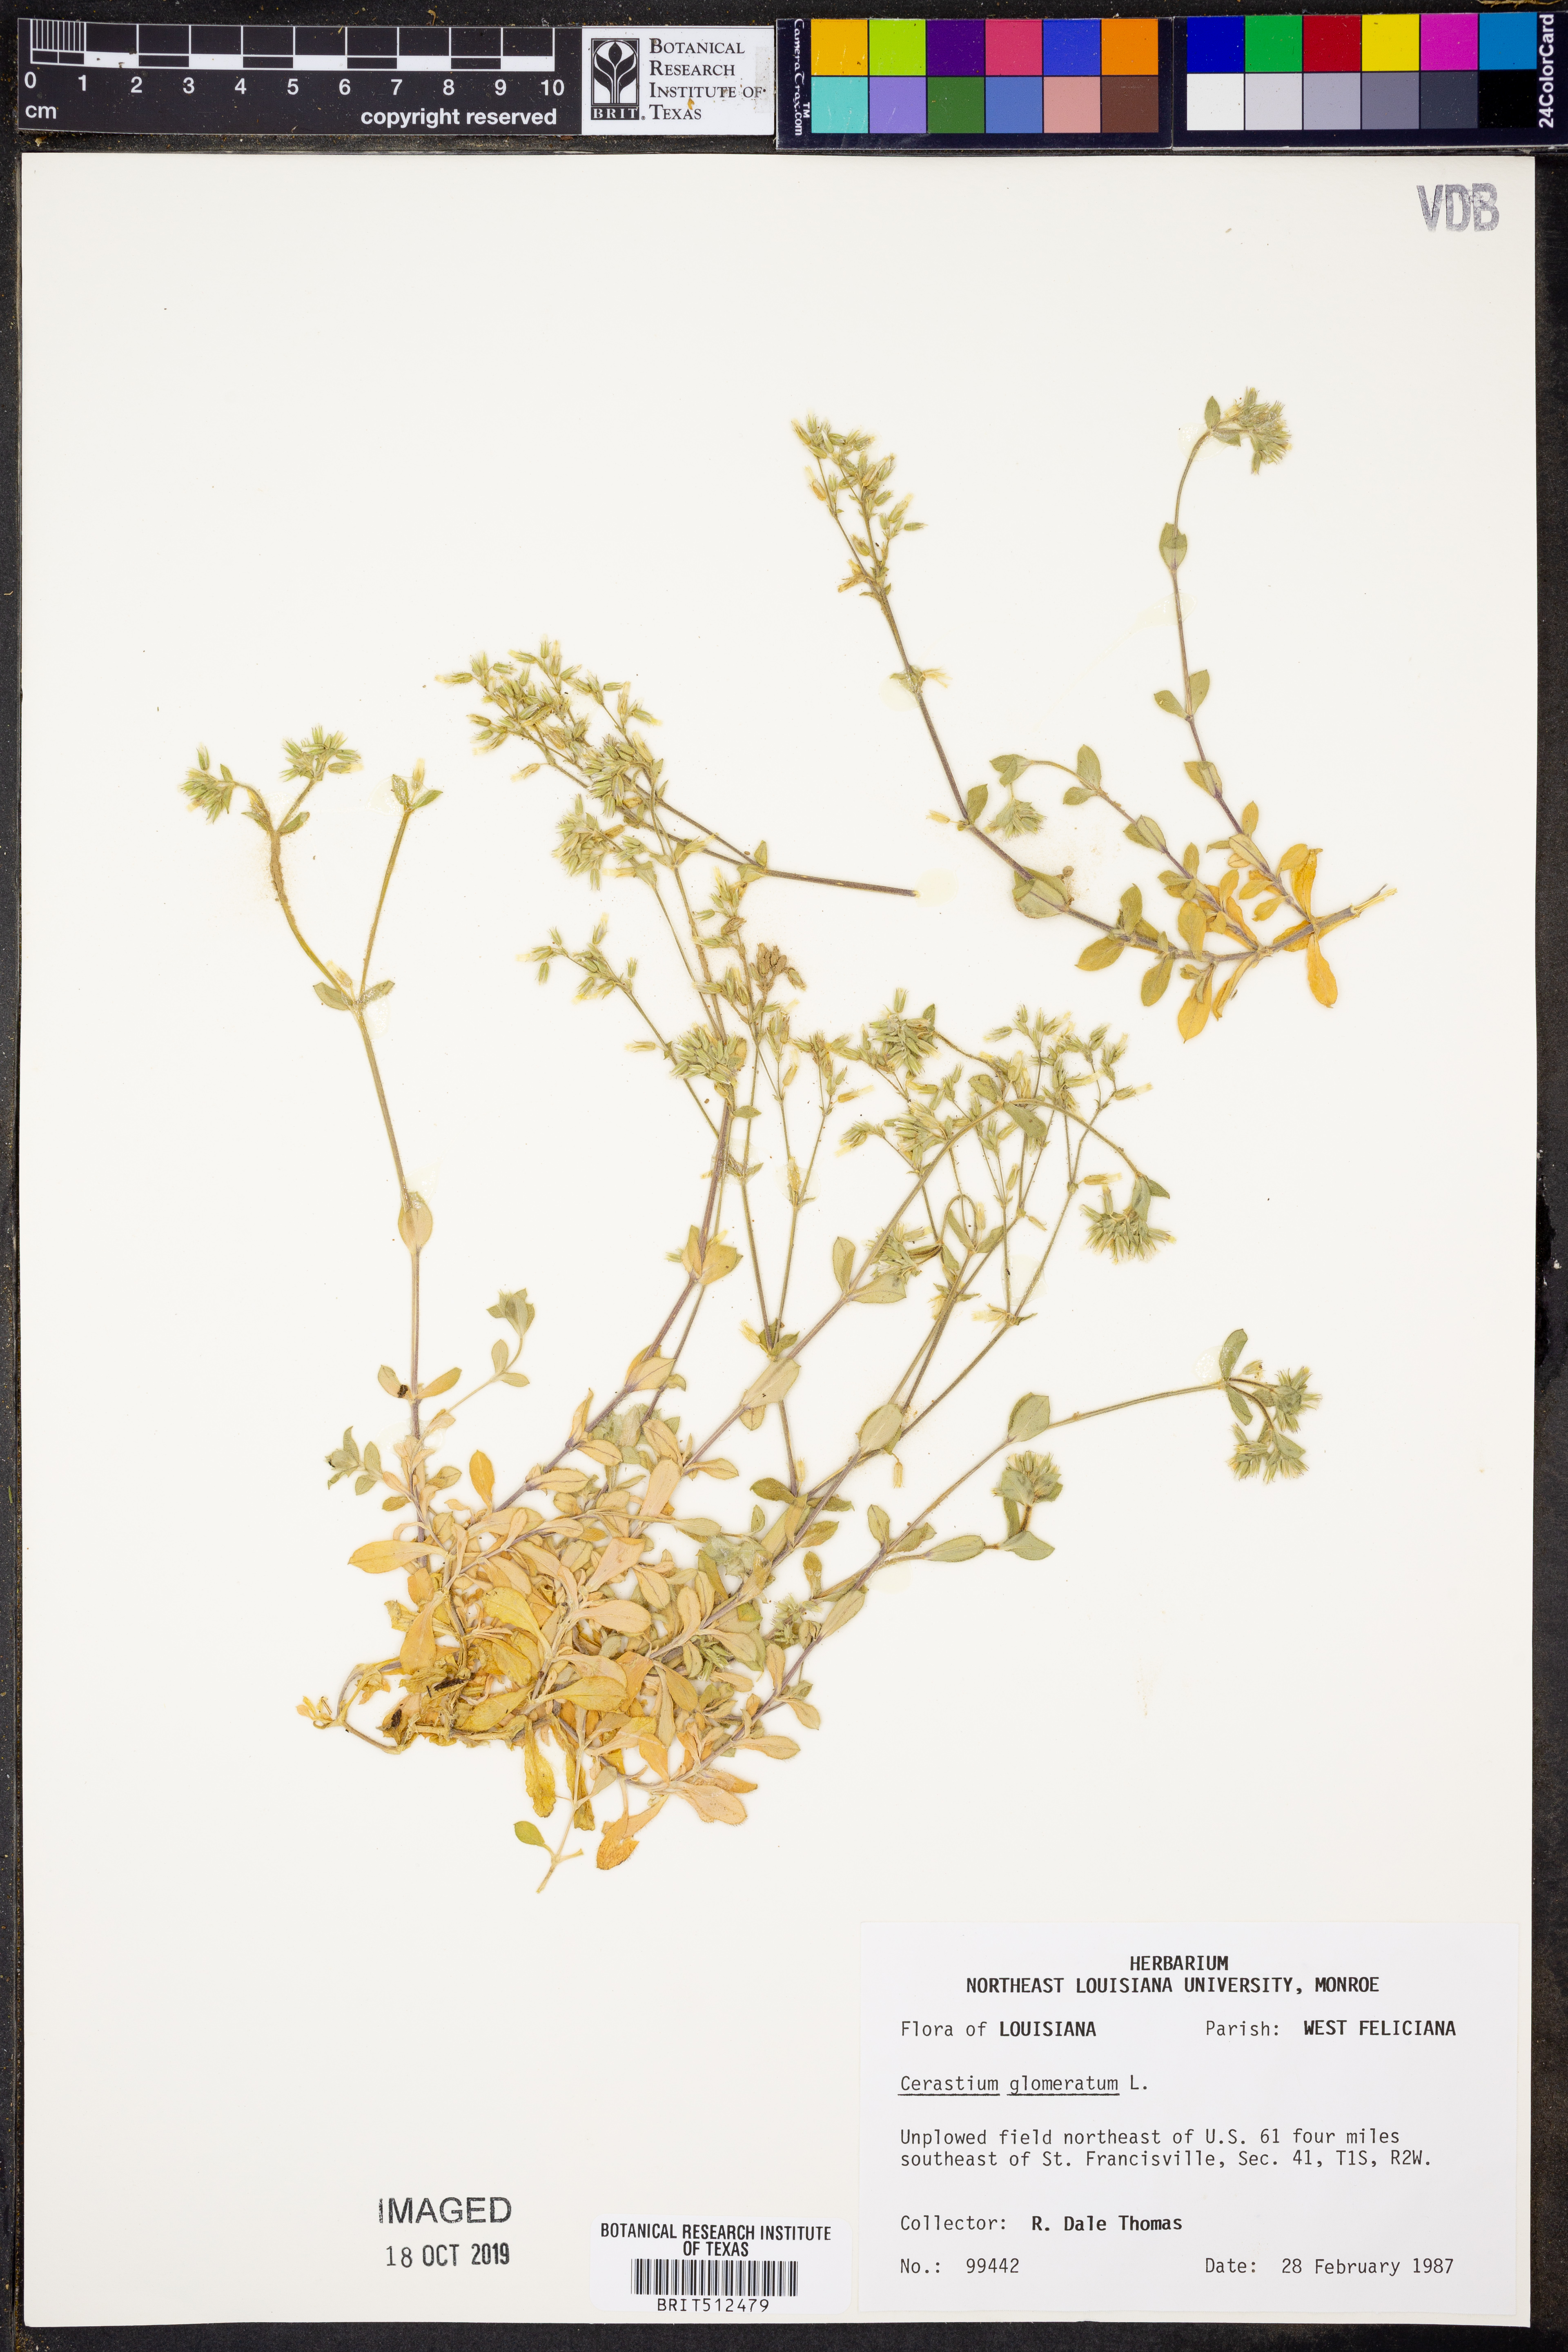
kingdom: Plantae
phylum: Tracheophyta
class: Magnoliopsida
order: Caryophyllales
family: Caryophyllaceae
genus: Cerastium
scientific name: Cerastium glomeratum
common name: Sticky chickweed
